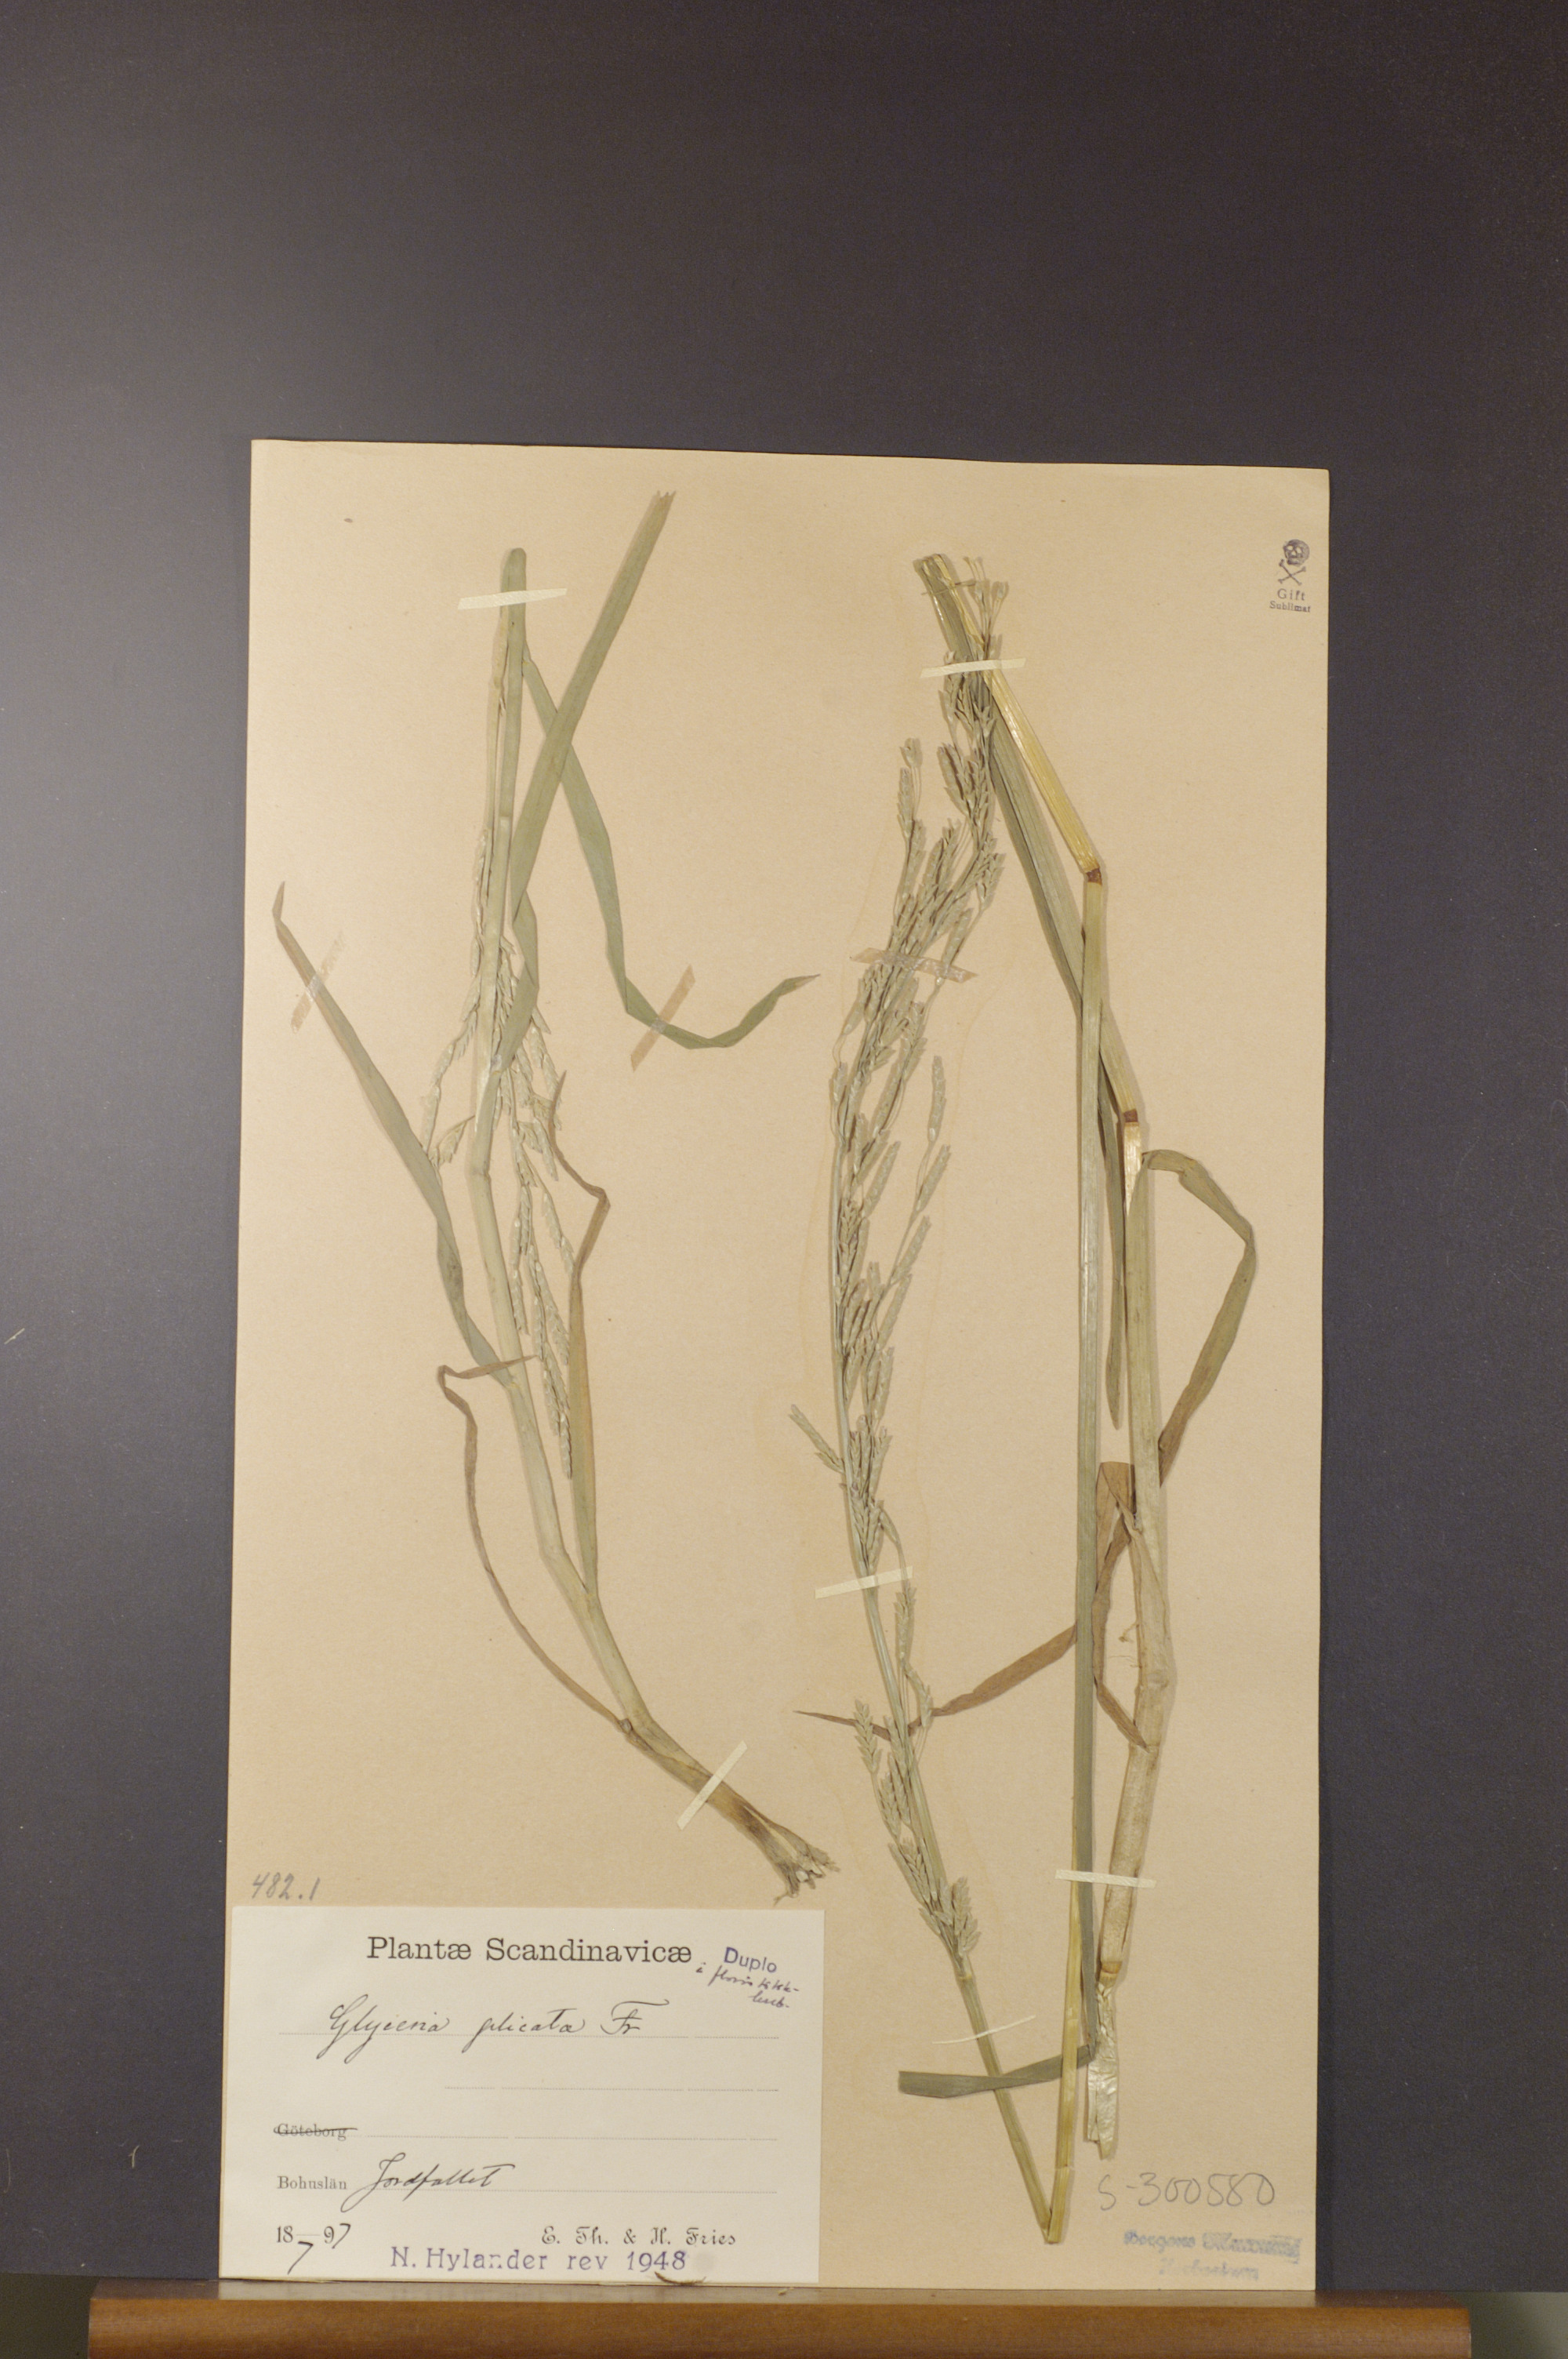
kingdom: Plantae
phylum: Tracheophyta
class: Liliopsida
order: Poales
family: Poaceae
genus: Glyceria
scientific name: Glyceria notata
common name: Plicate sweet-grass
